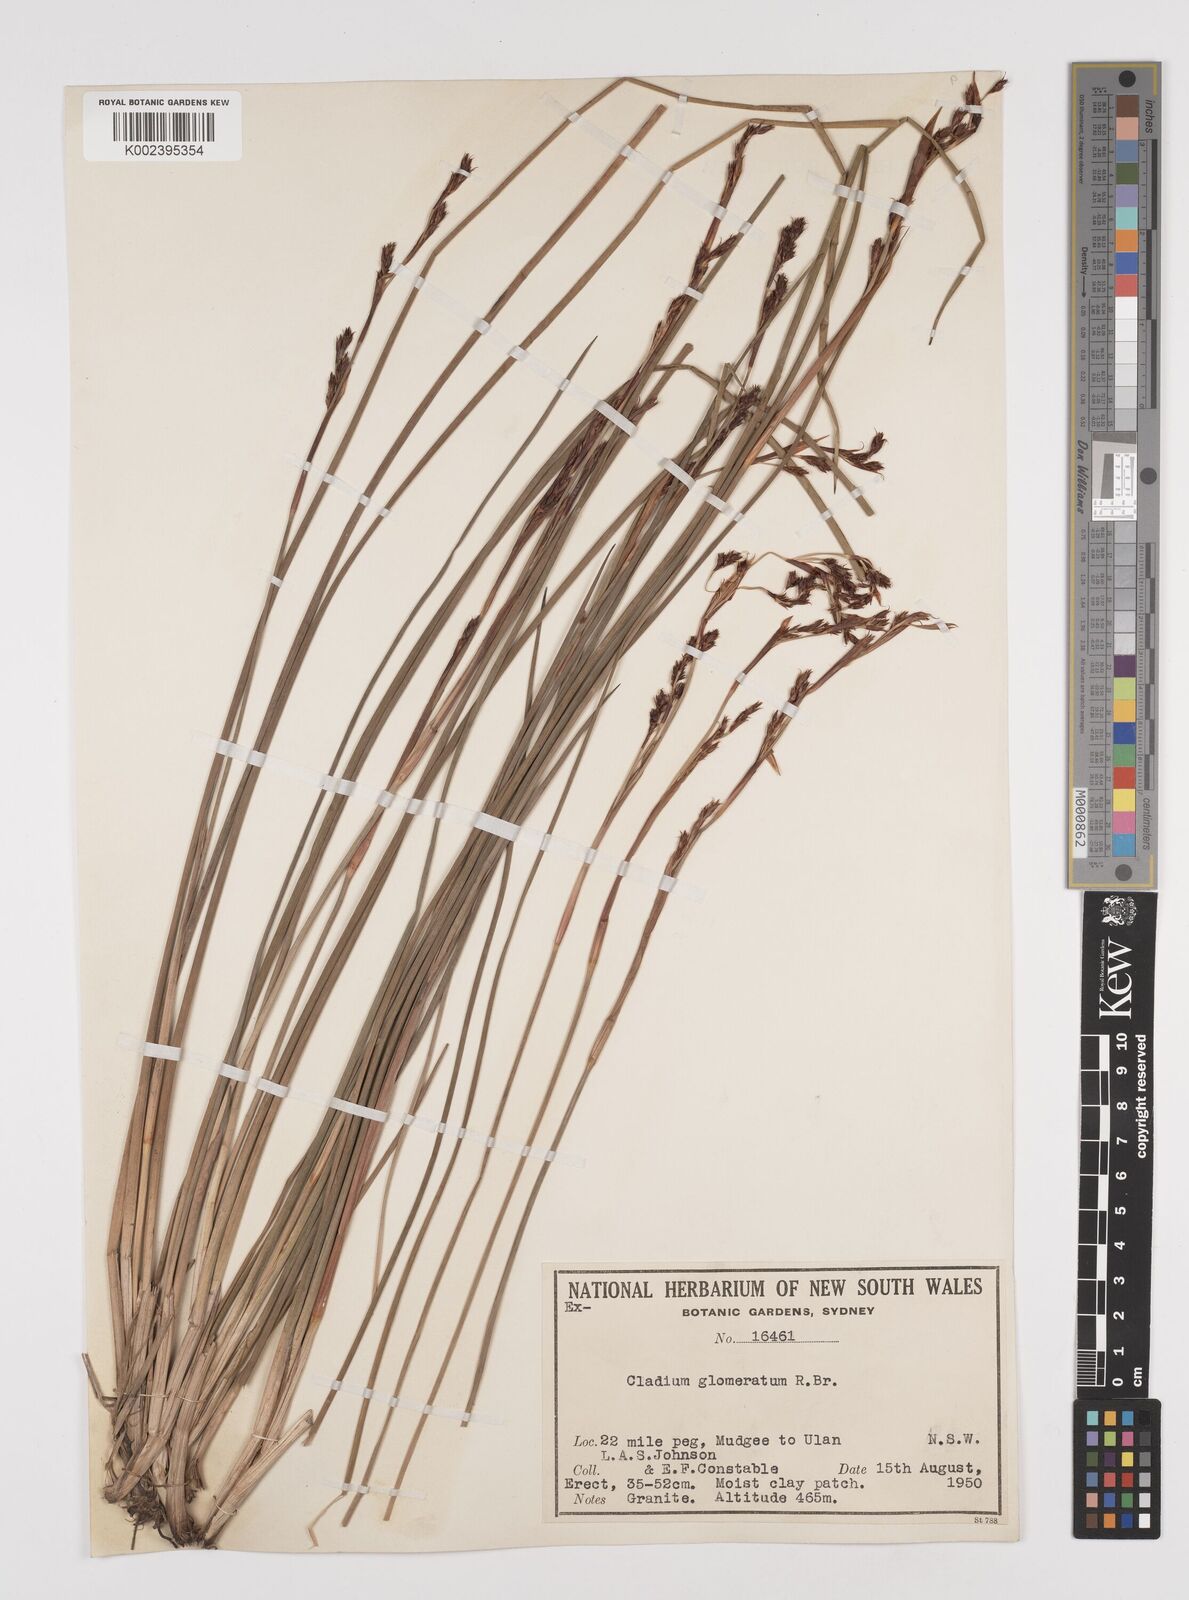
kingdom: Plantae
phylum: Tracheophyta
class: Liliopsida
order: Poales
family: Cyperaceae
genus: Machaerina
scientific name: Machaerina rubiginosa
